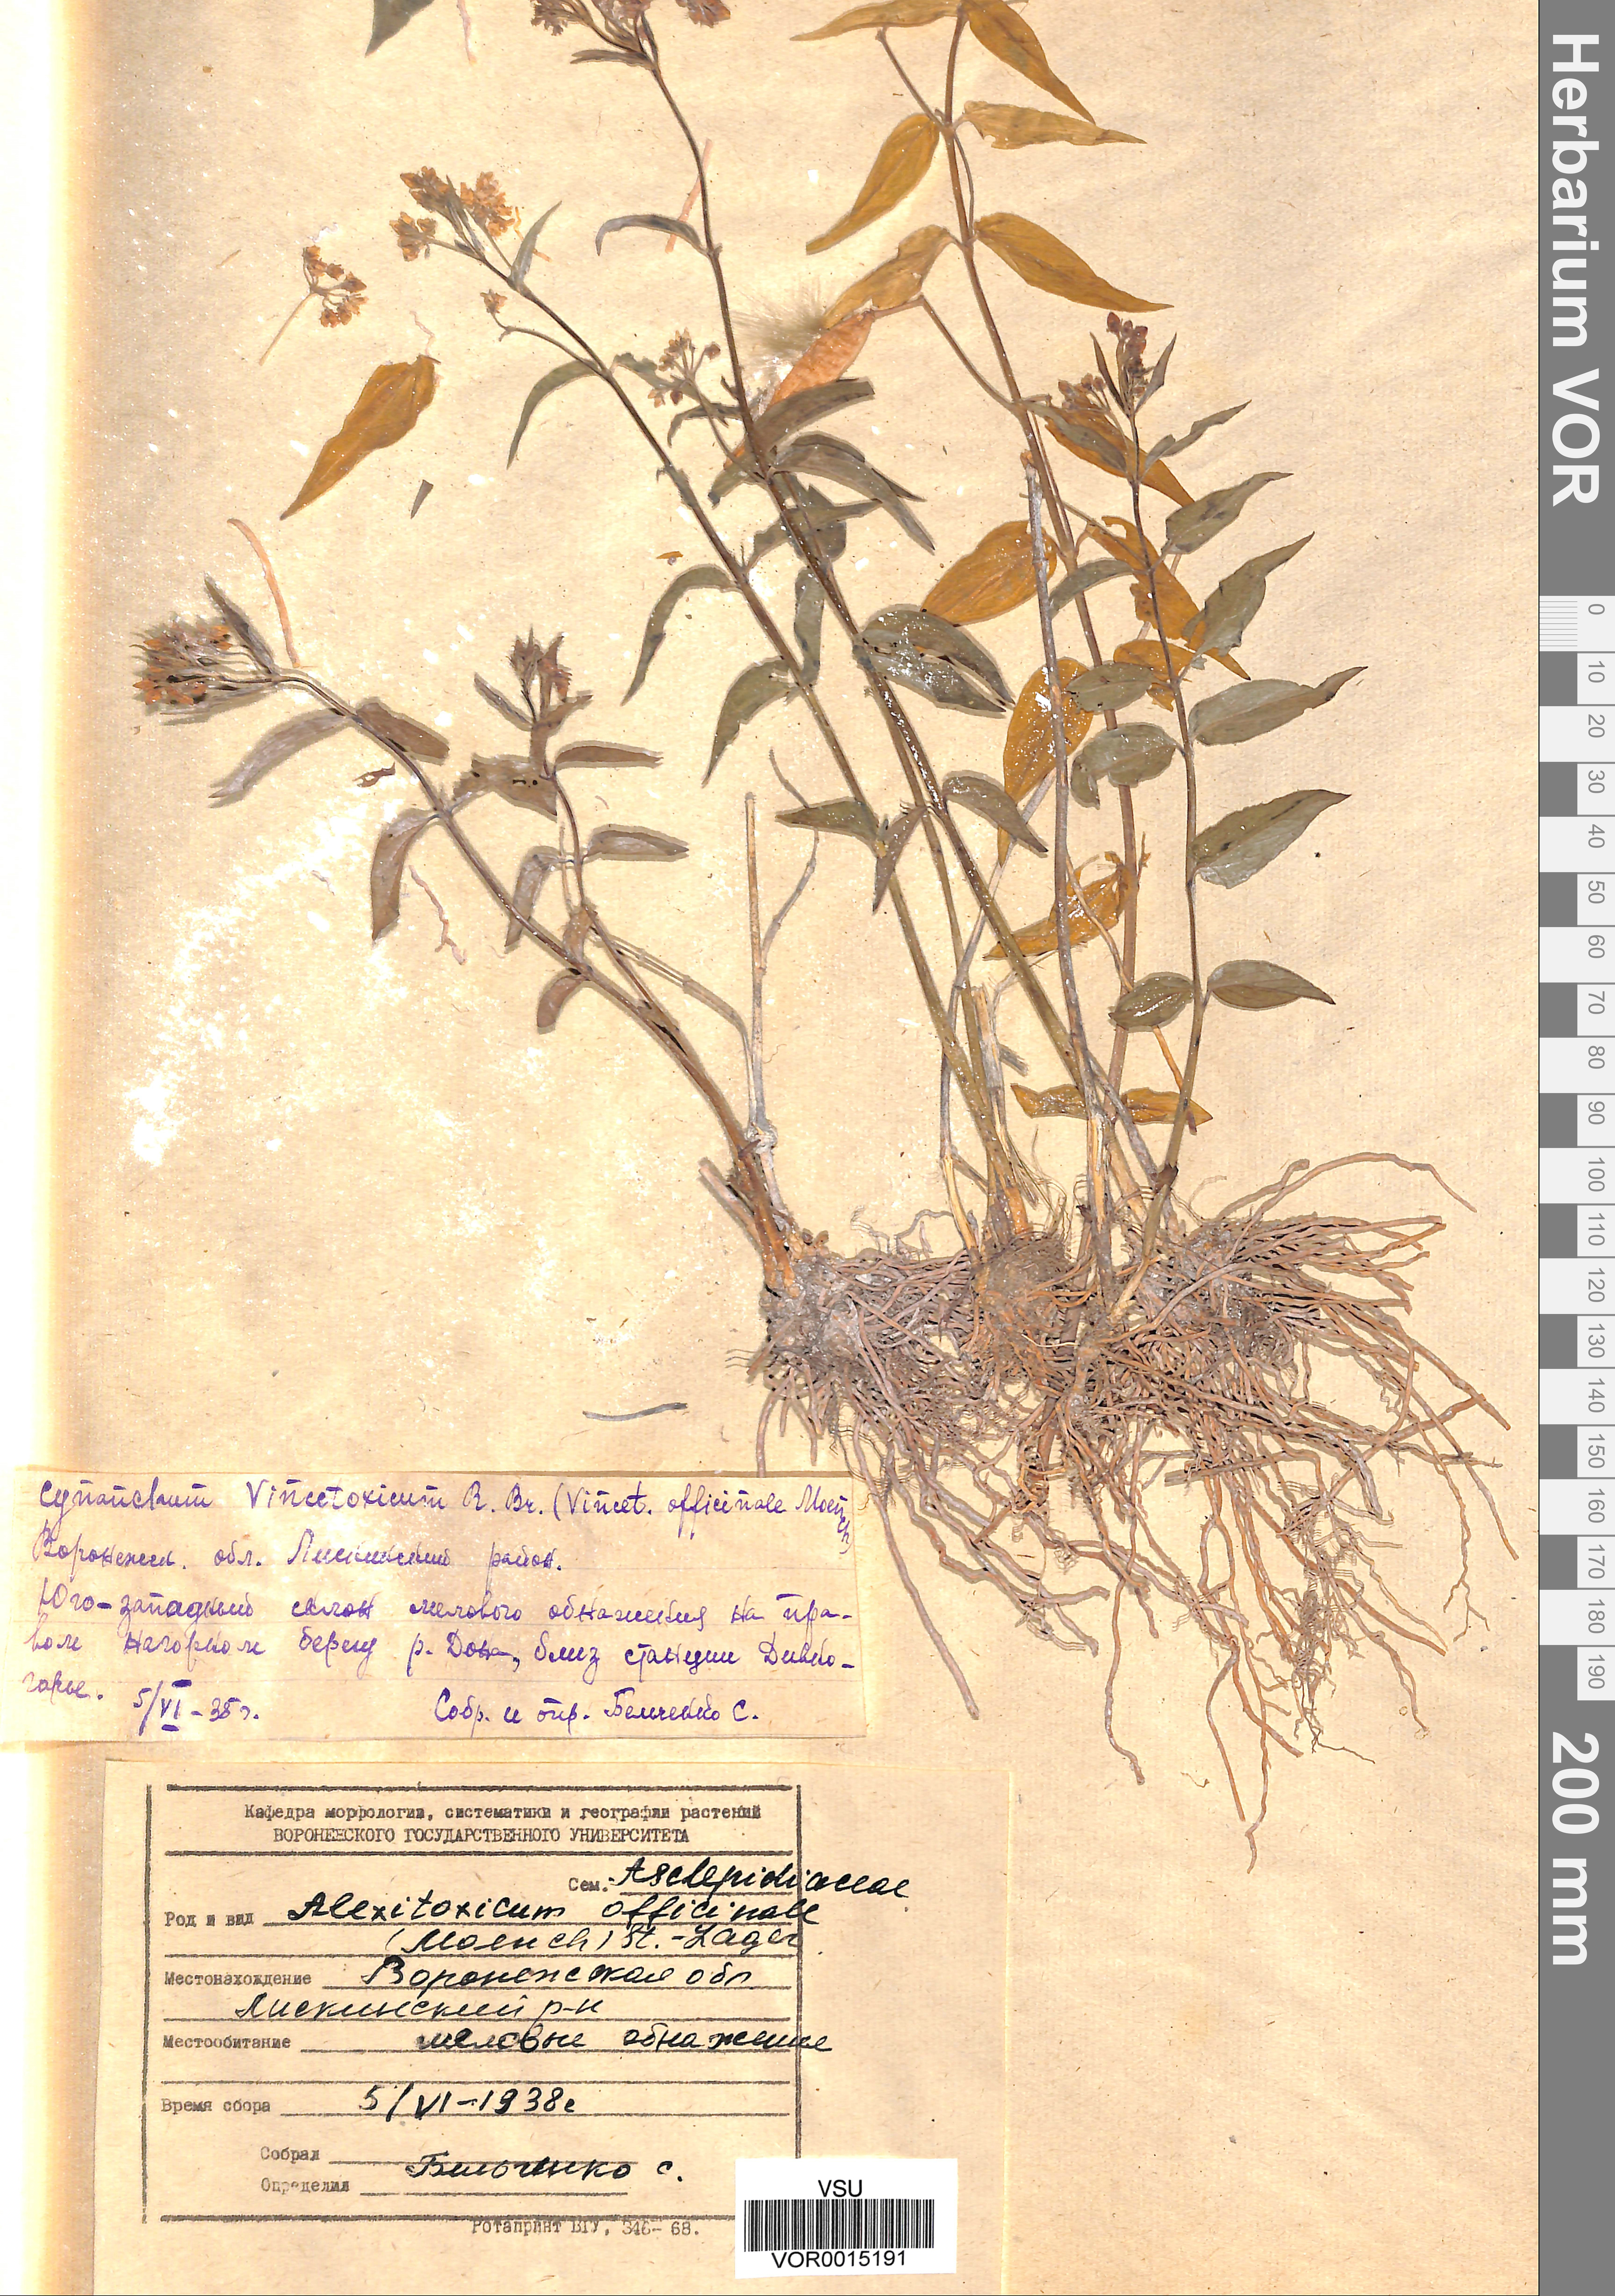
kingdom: Plantae
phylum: Tracheophyta
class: Magnoliopsida
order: Gentianales
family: Apocynaceae
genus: Vincetoxicum
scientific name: Vincetoxicum hirundinaria
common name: White swallowwort
